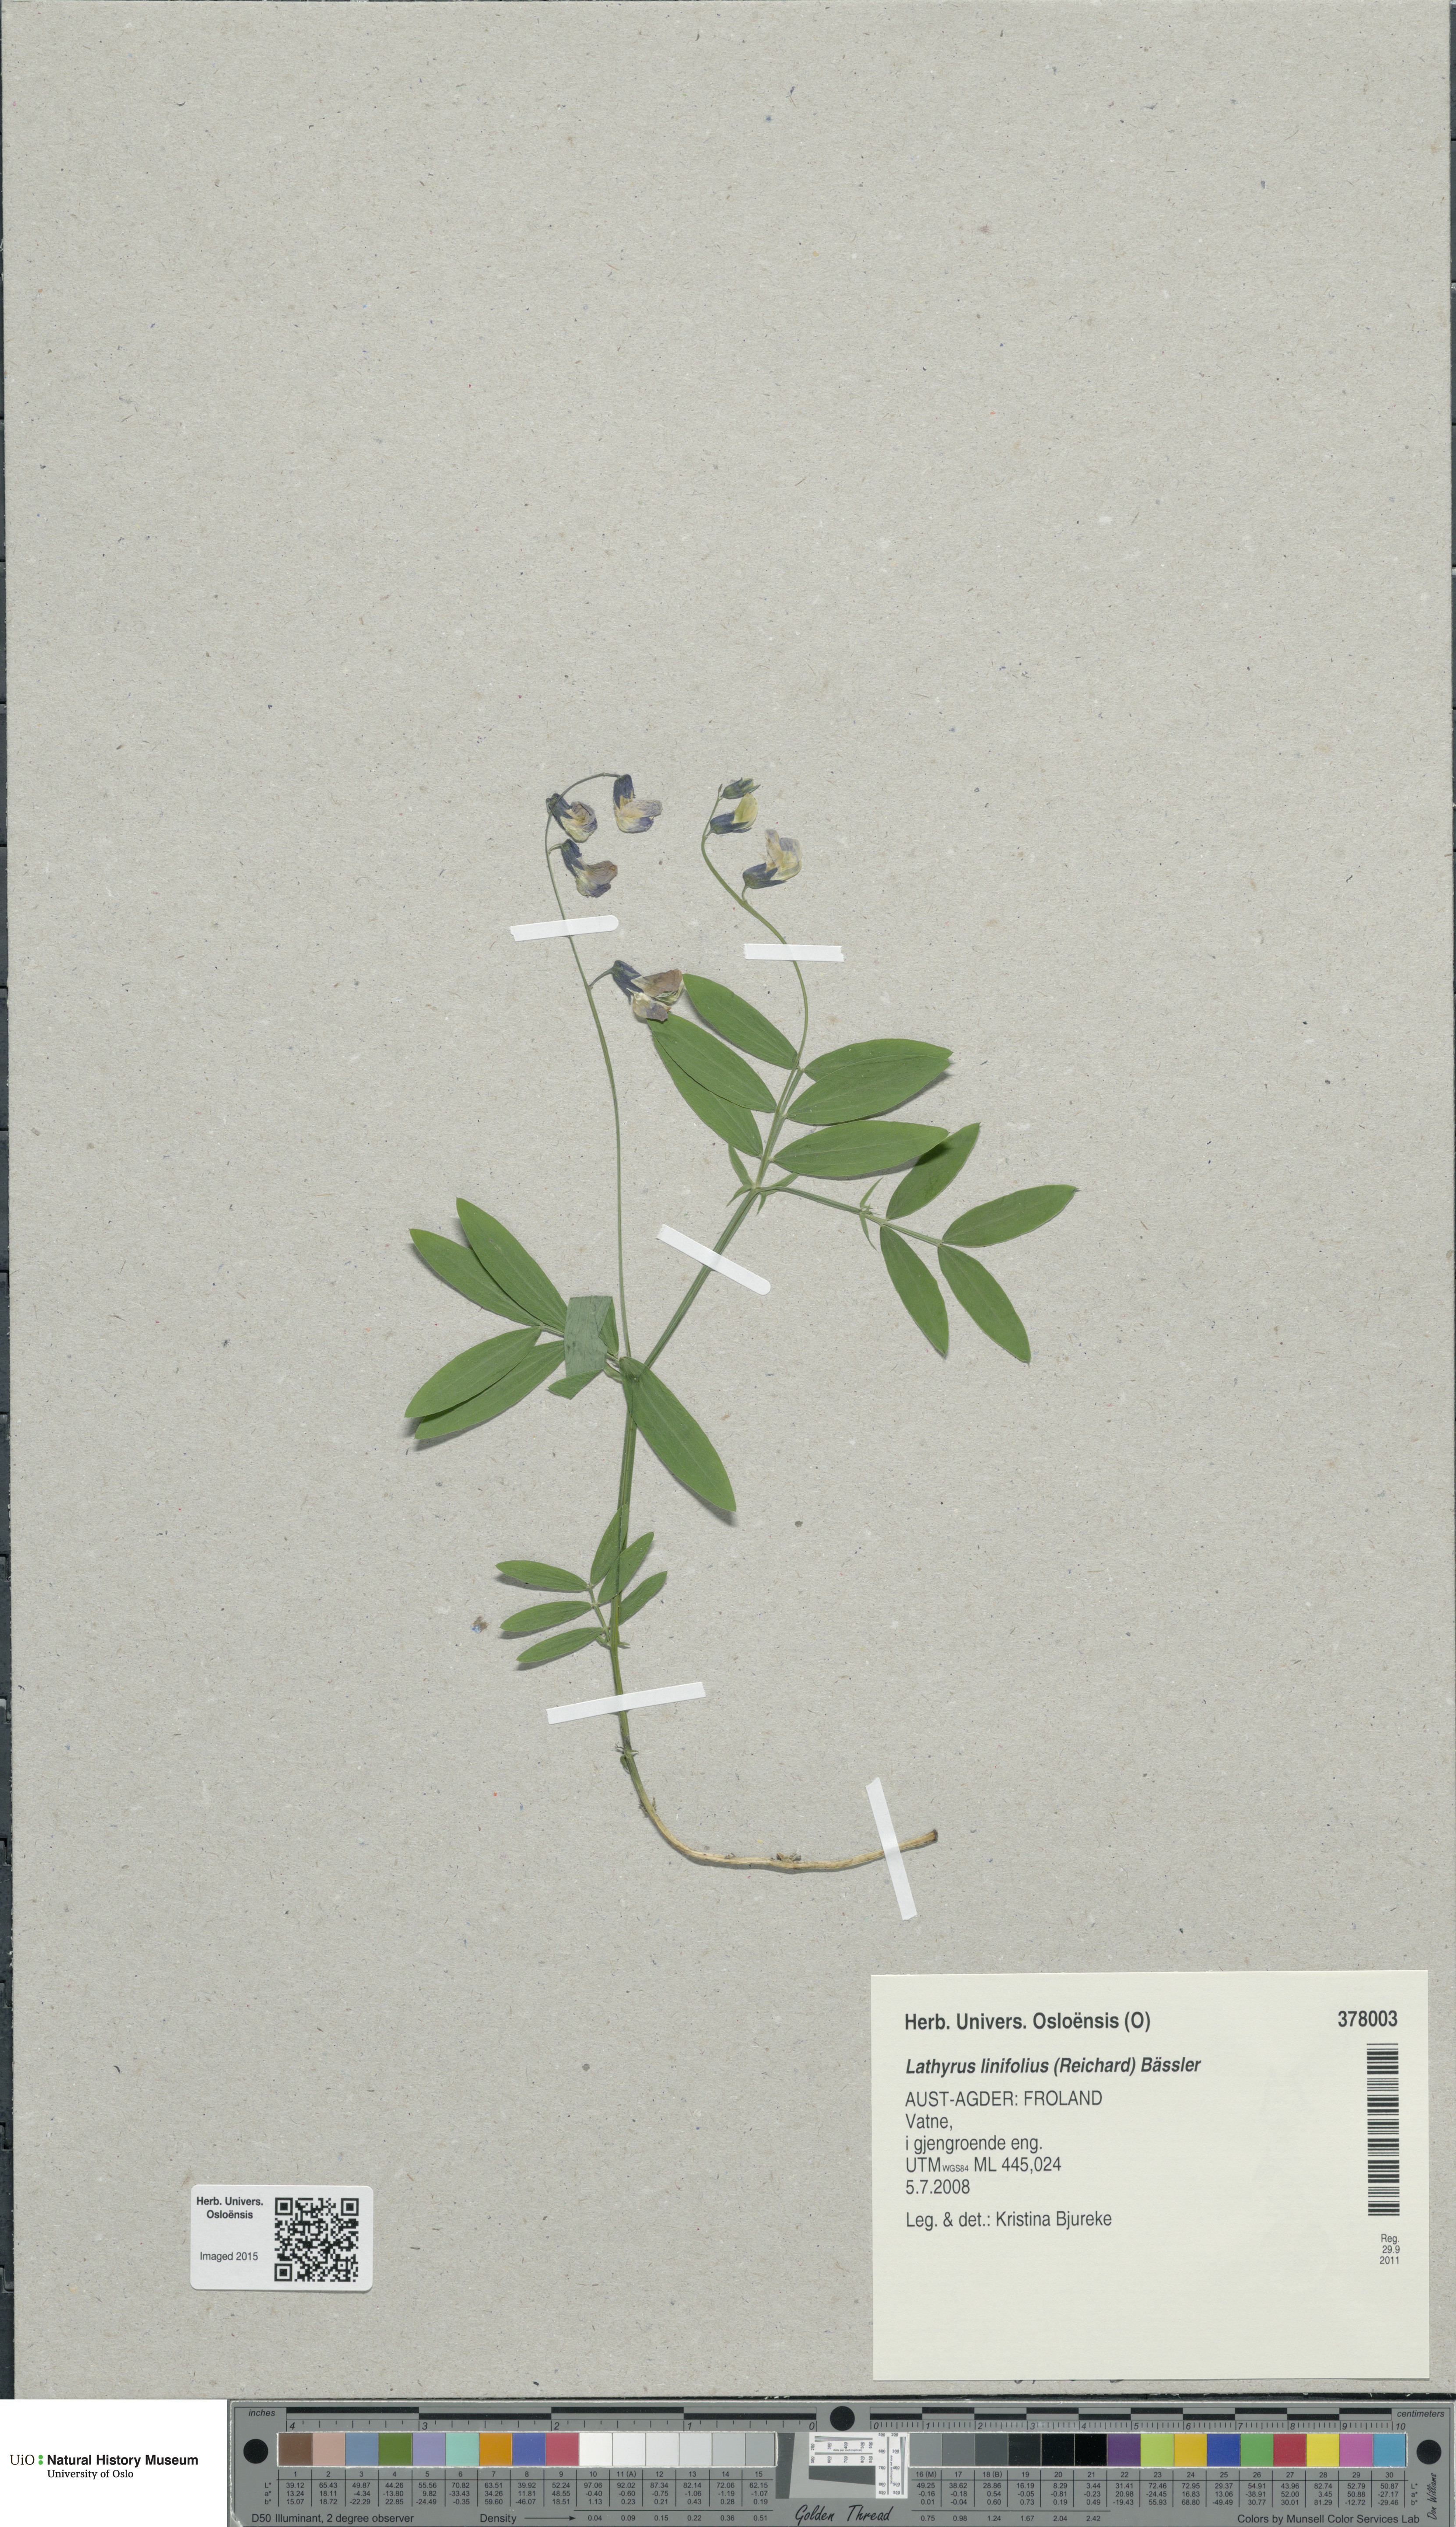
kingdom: Plantae
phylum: Tracheophyta
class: Magnoliopsida
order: Fabales
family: Fabaceae
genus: Lathyrus
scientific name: Lathyrus linifolius
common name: Bitter-vetch
